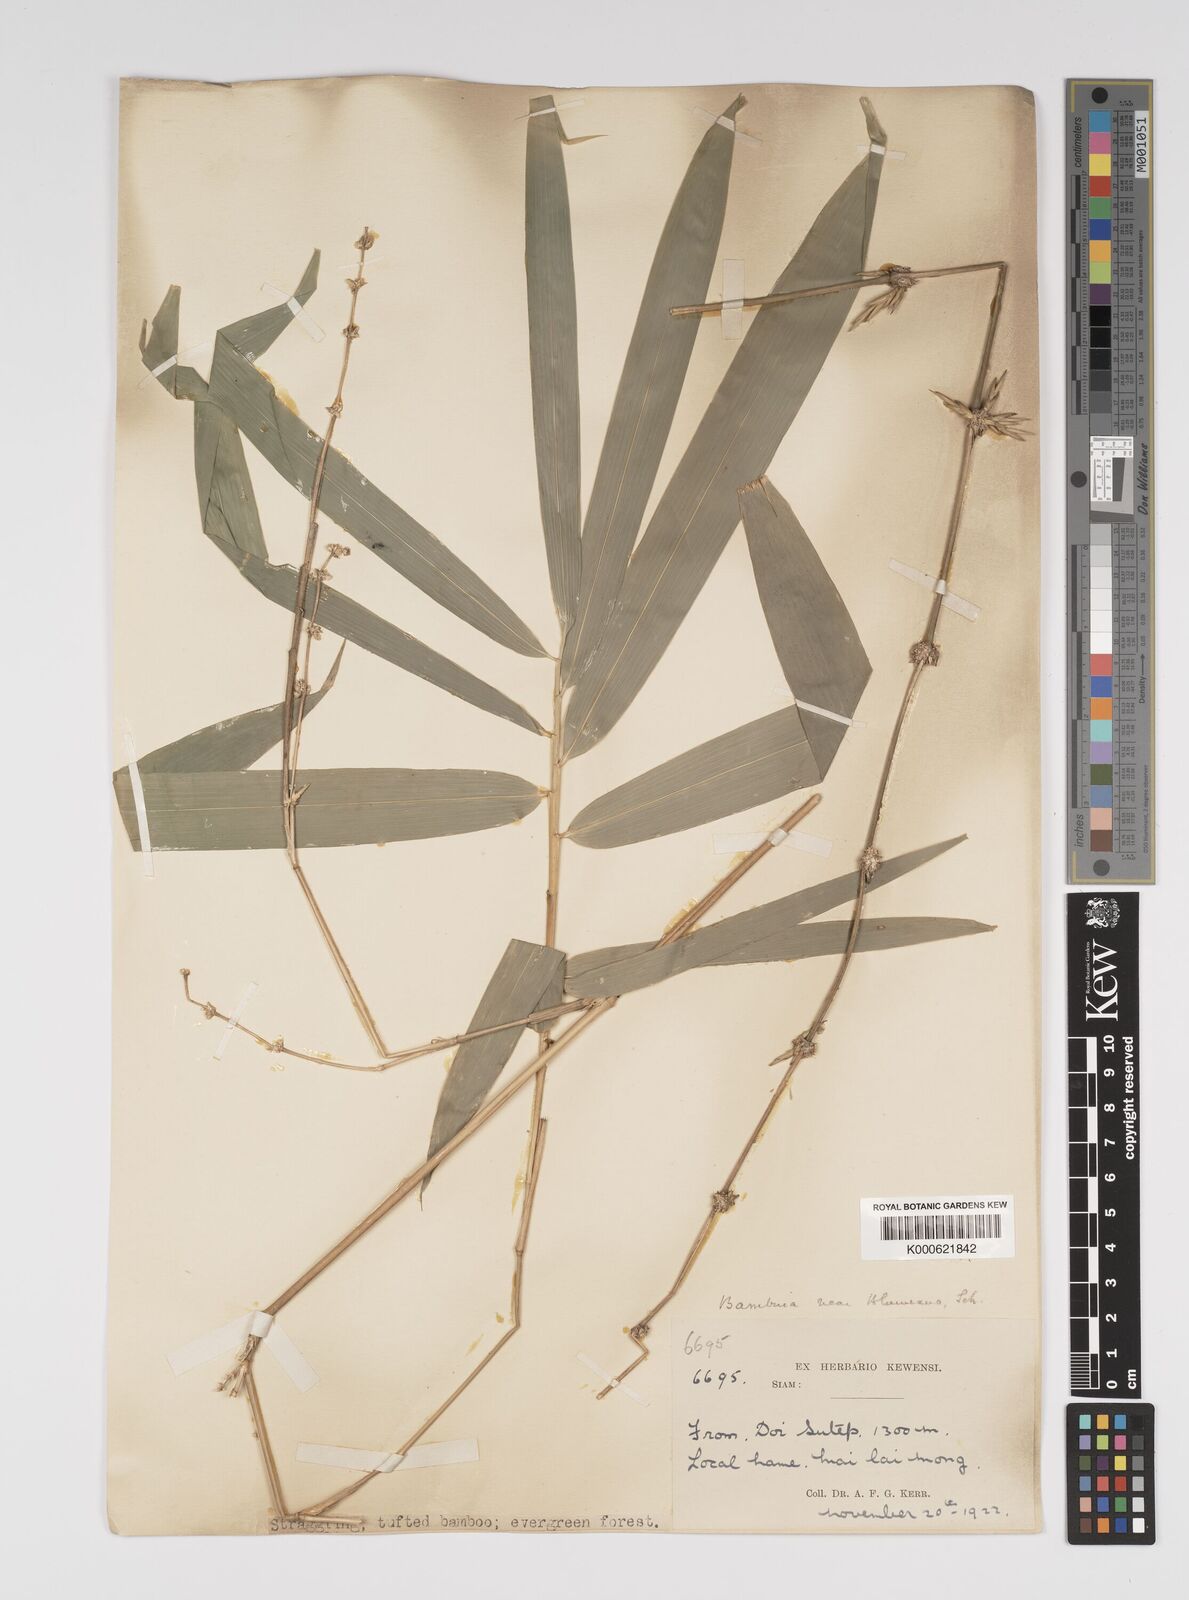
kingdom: Plantae
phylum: Tracheophyta
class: Liliopsida
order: Poales
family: Poaceae
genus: Bambusa
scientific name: Bambusa sesquiflora
